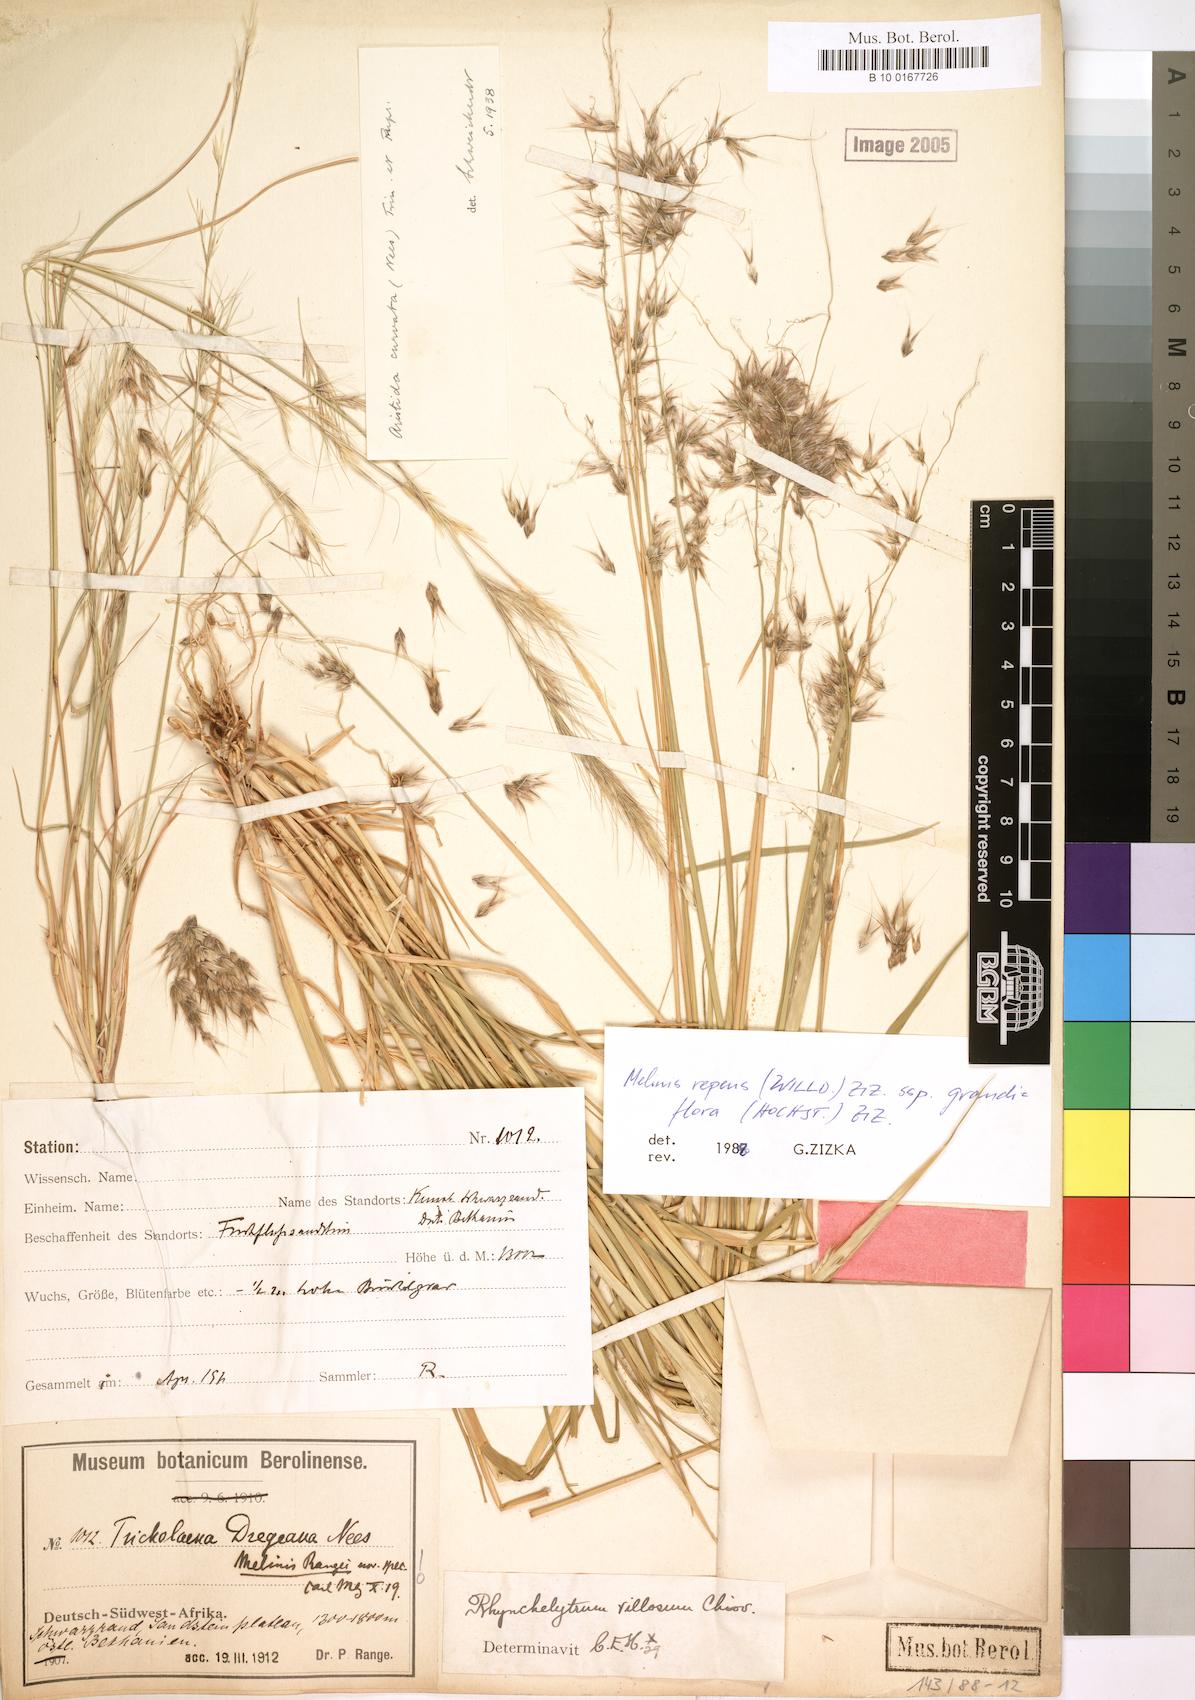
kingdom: Plantae
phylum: Tracheophyta
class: Liliopsida
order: Poales
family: Poaceae
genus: Melinis
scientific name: Melinis repens
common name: Rose natal grass
